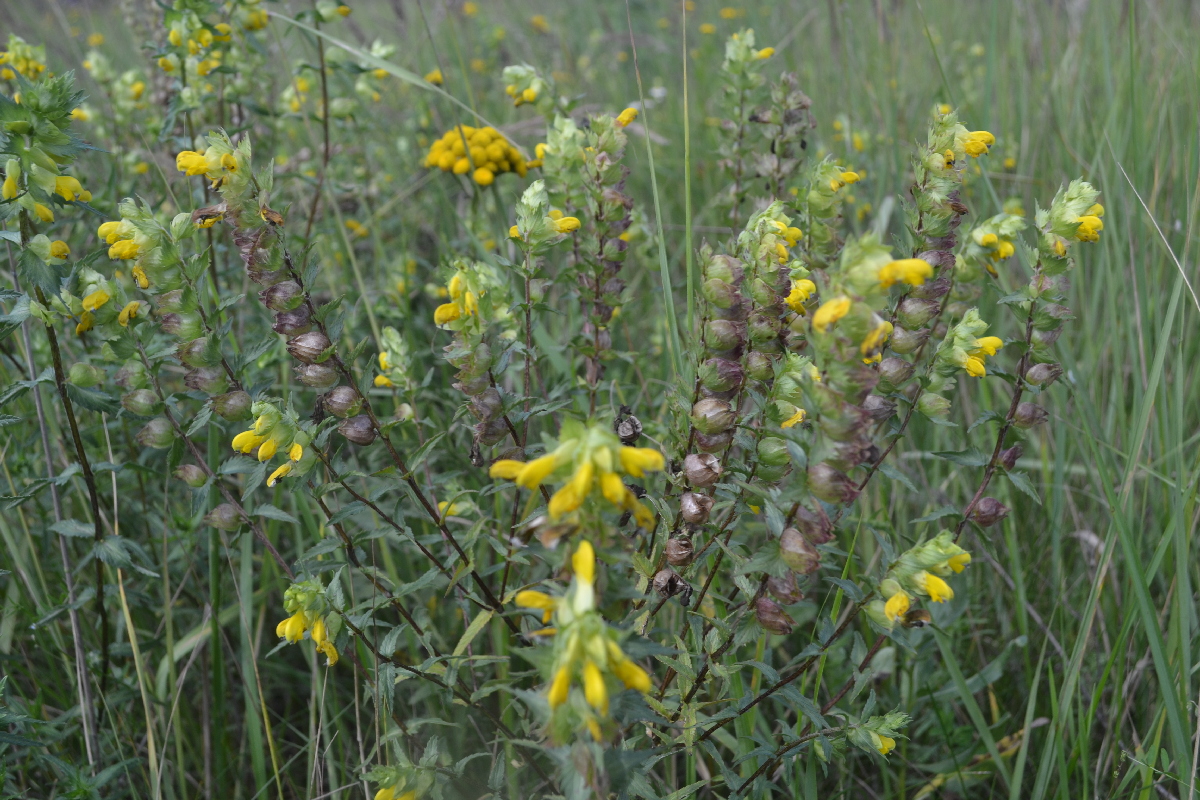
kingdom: Plantae
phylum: Tracheophyta
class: Magnoliopsida
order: Lamiales
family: Orobanchaceae
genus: Rhinanthus
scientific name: Rhinanthus serotinus
